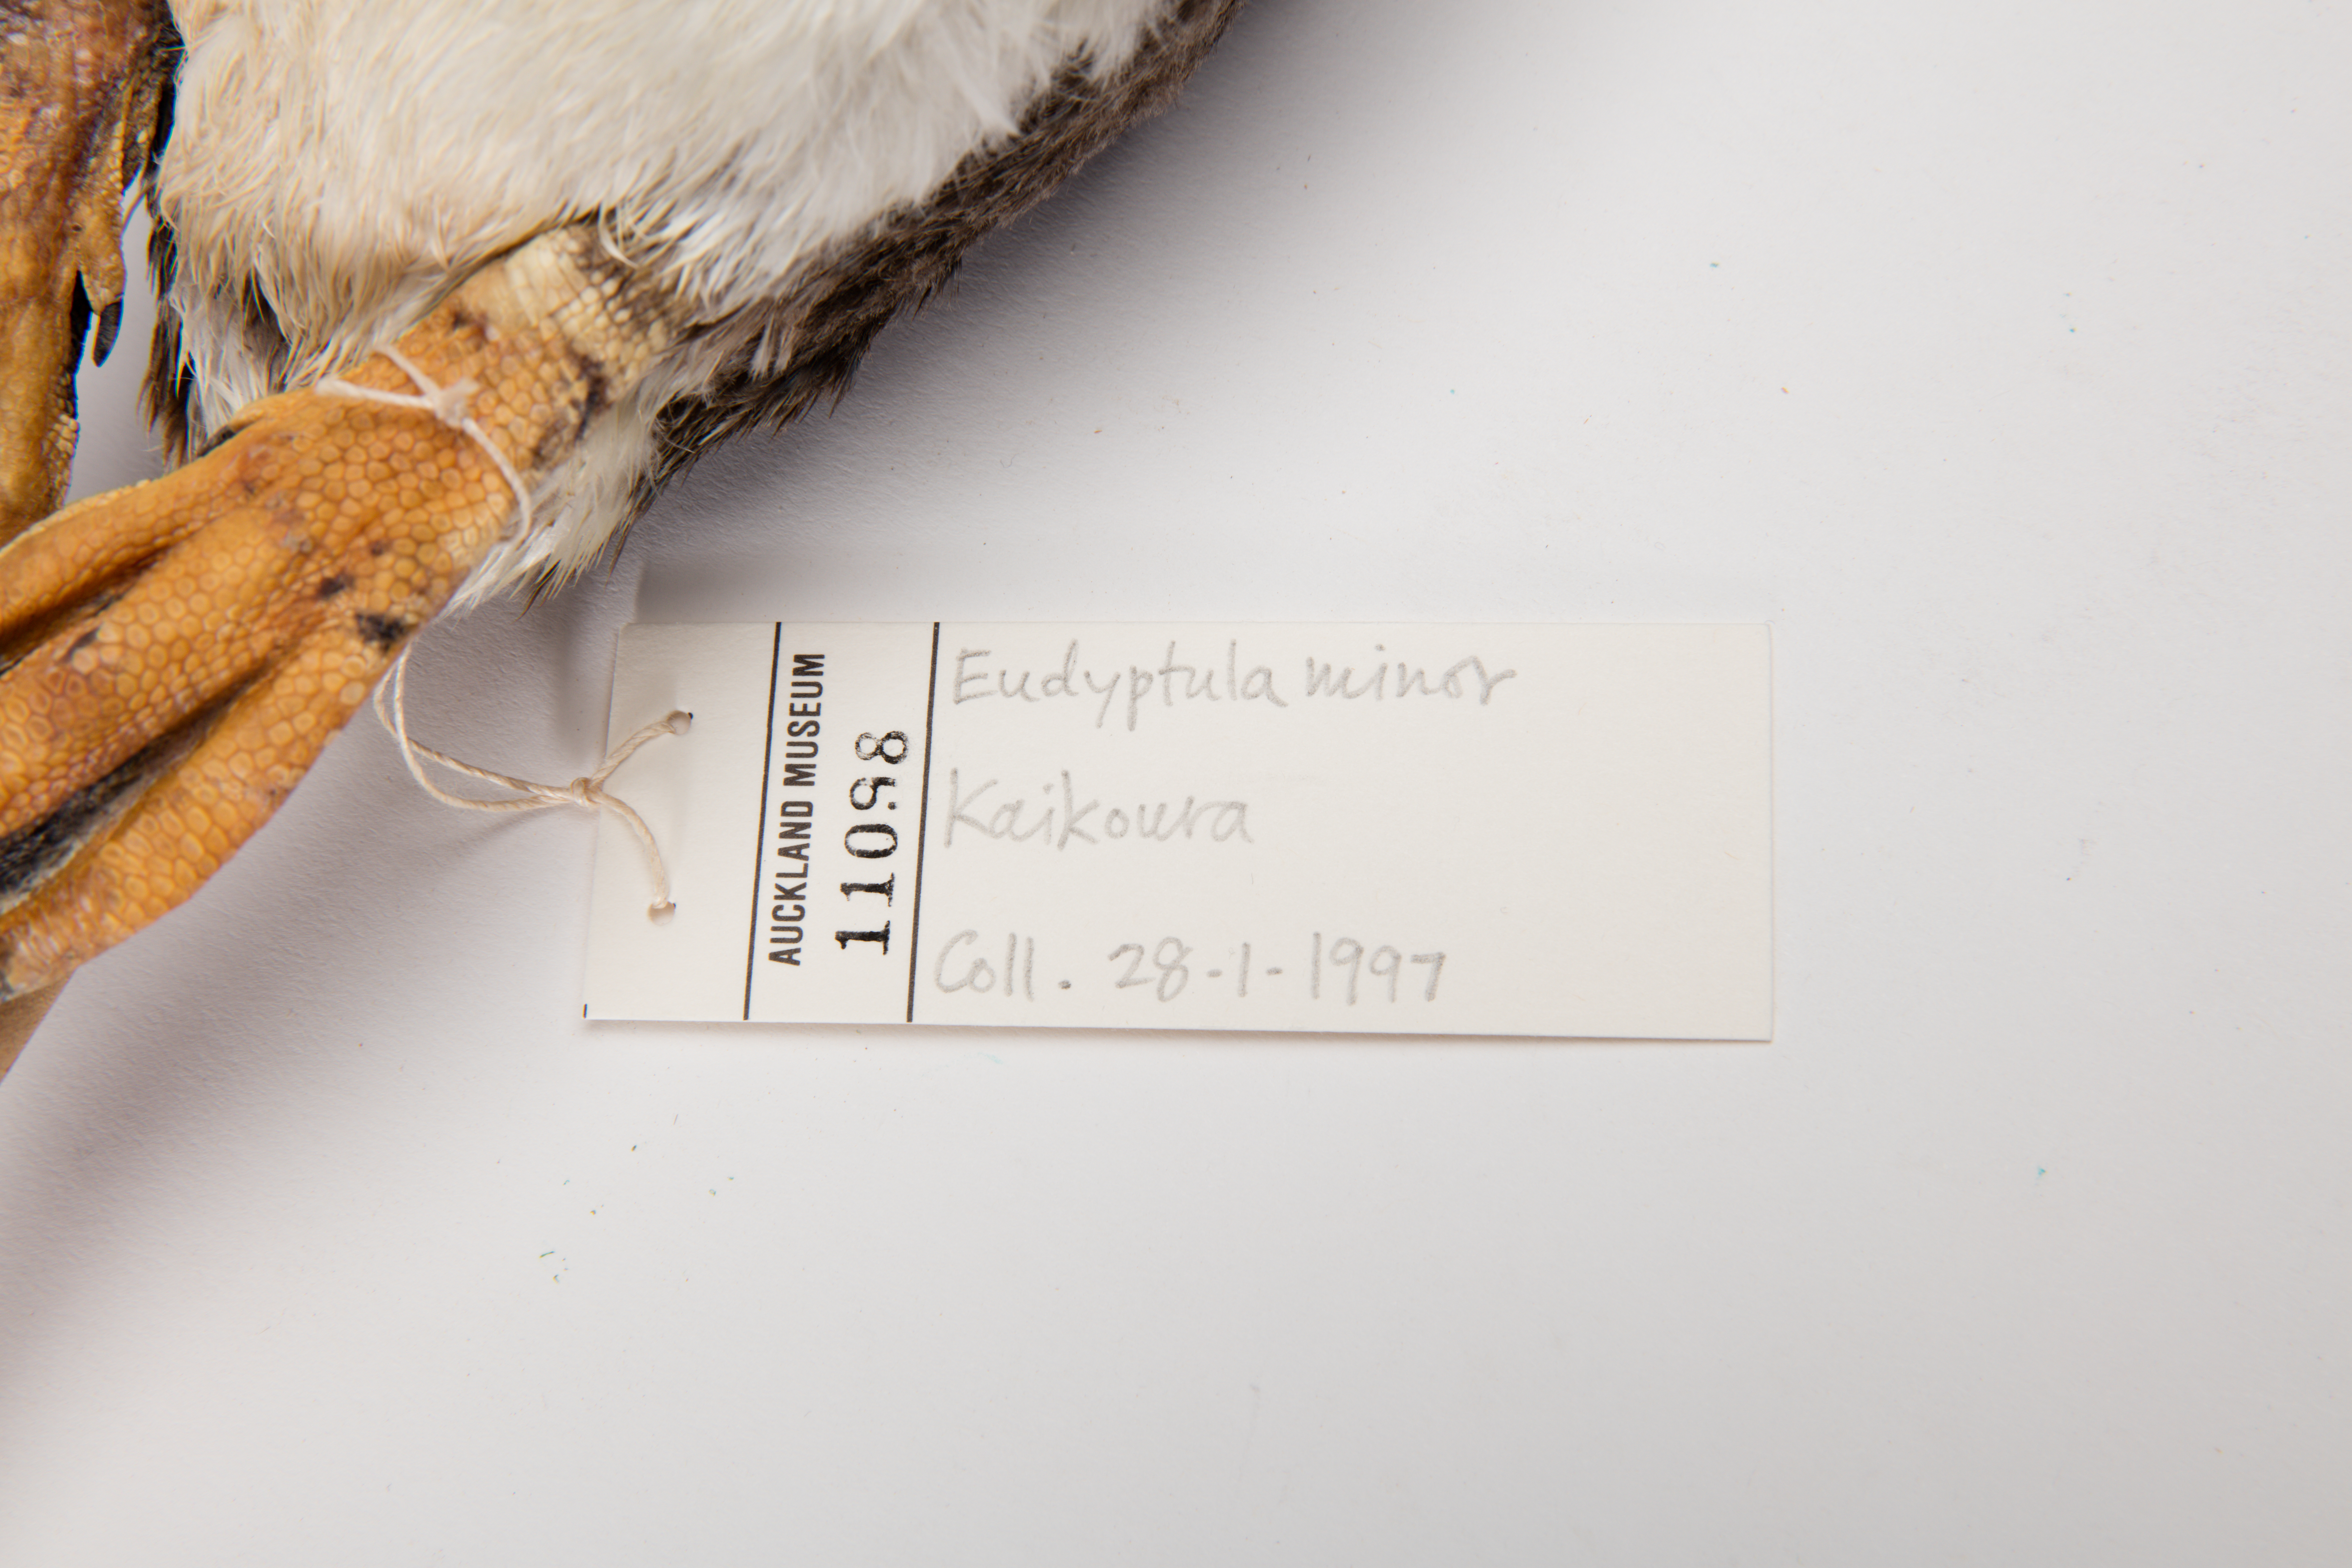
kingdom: Animalia
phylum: Chordata
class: Aves
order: Sphenisciformes
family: Spheniscidae
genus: Eudyptula
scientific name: Eudyptula minor
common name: Little penguin
